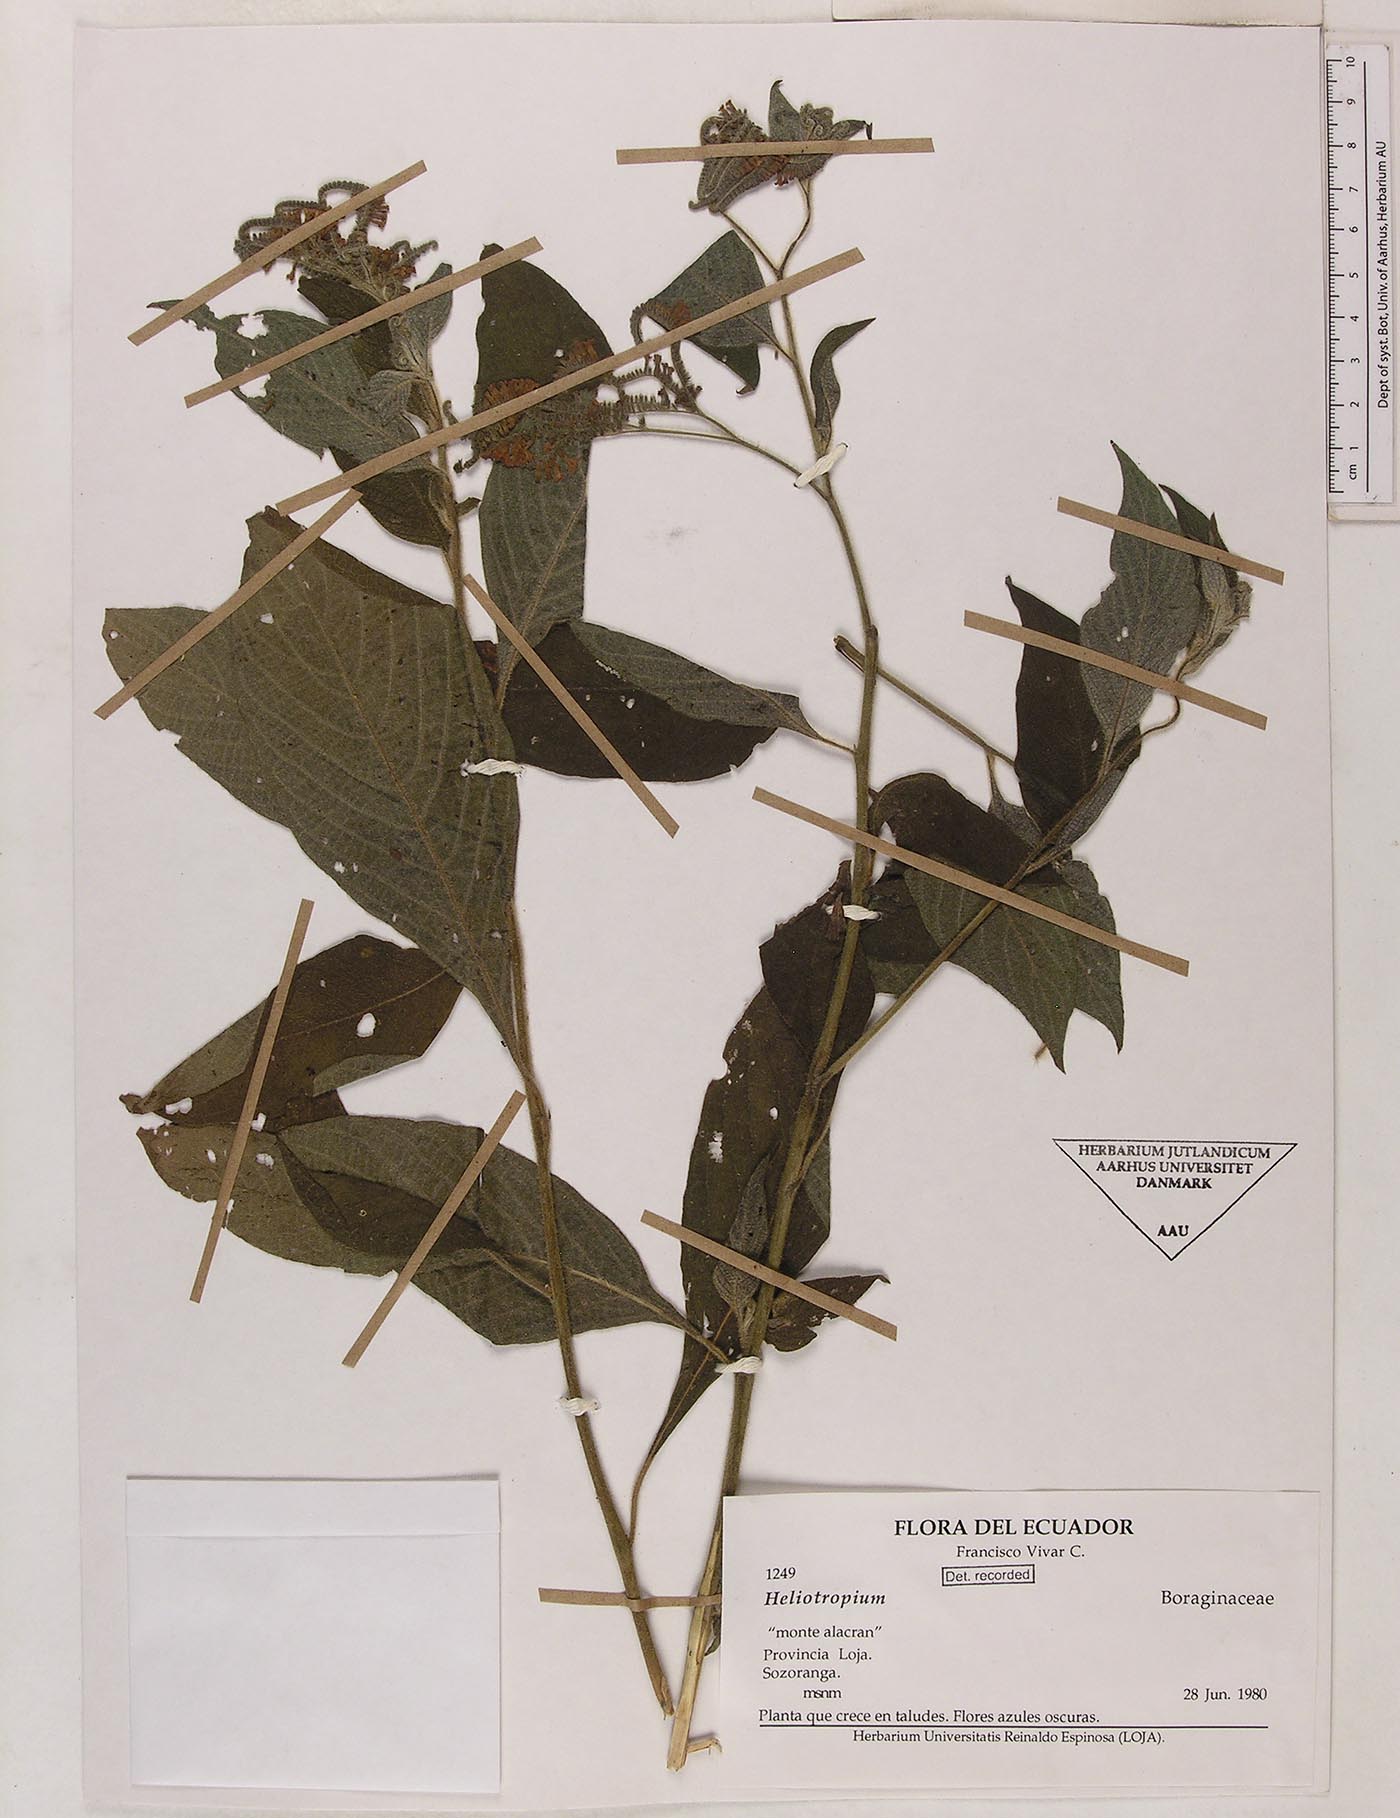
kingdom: Plantae
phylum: Tracheophyta
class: Magnoliopsida
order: Boraginales
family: Heliotropiaceae
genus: Heliotropium
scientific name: Heliotropium rufipilum
